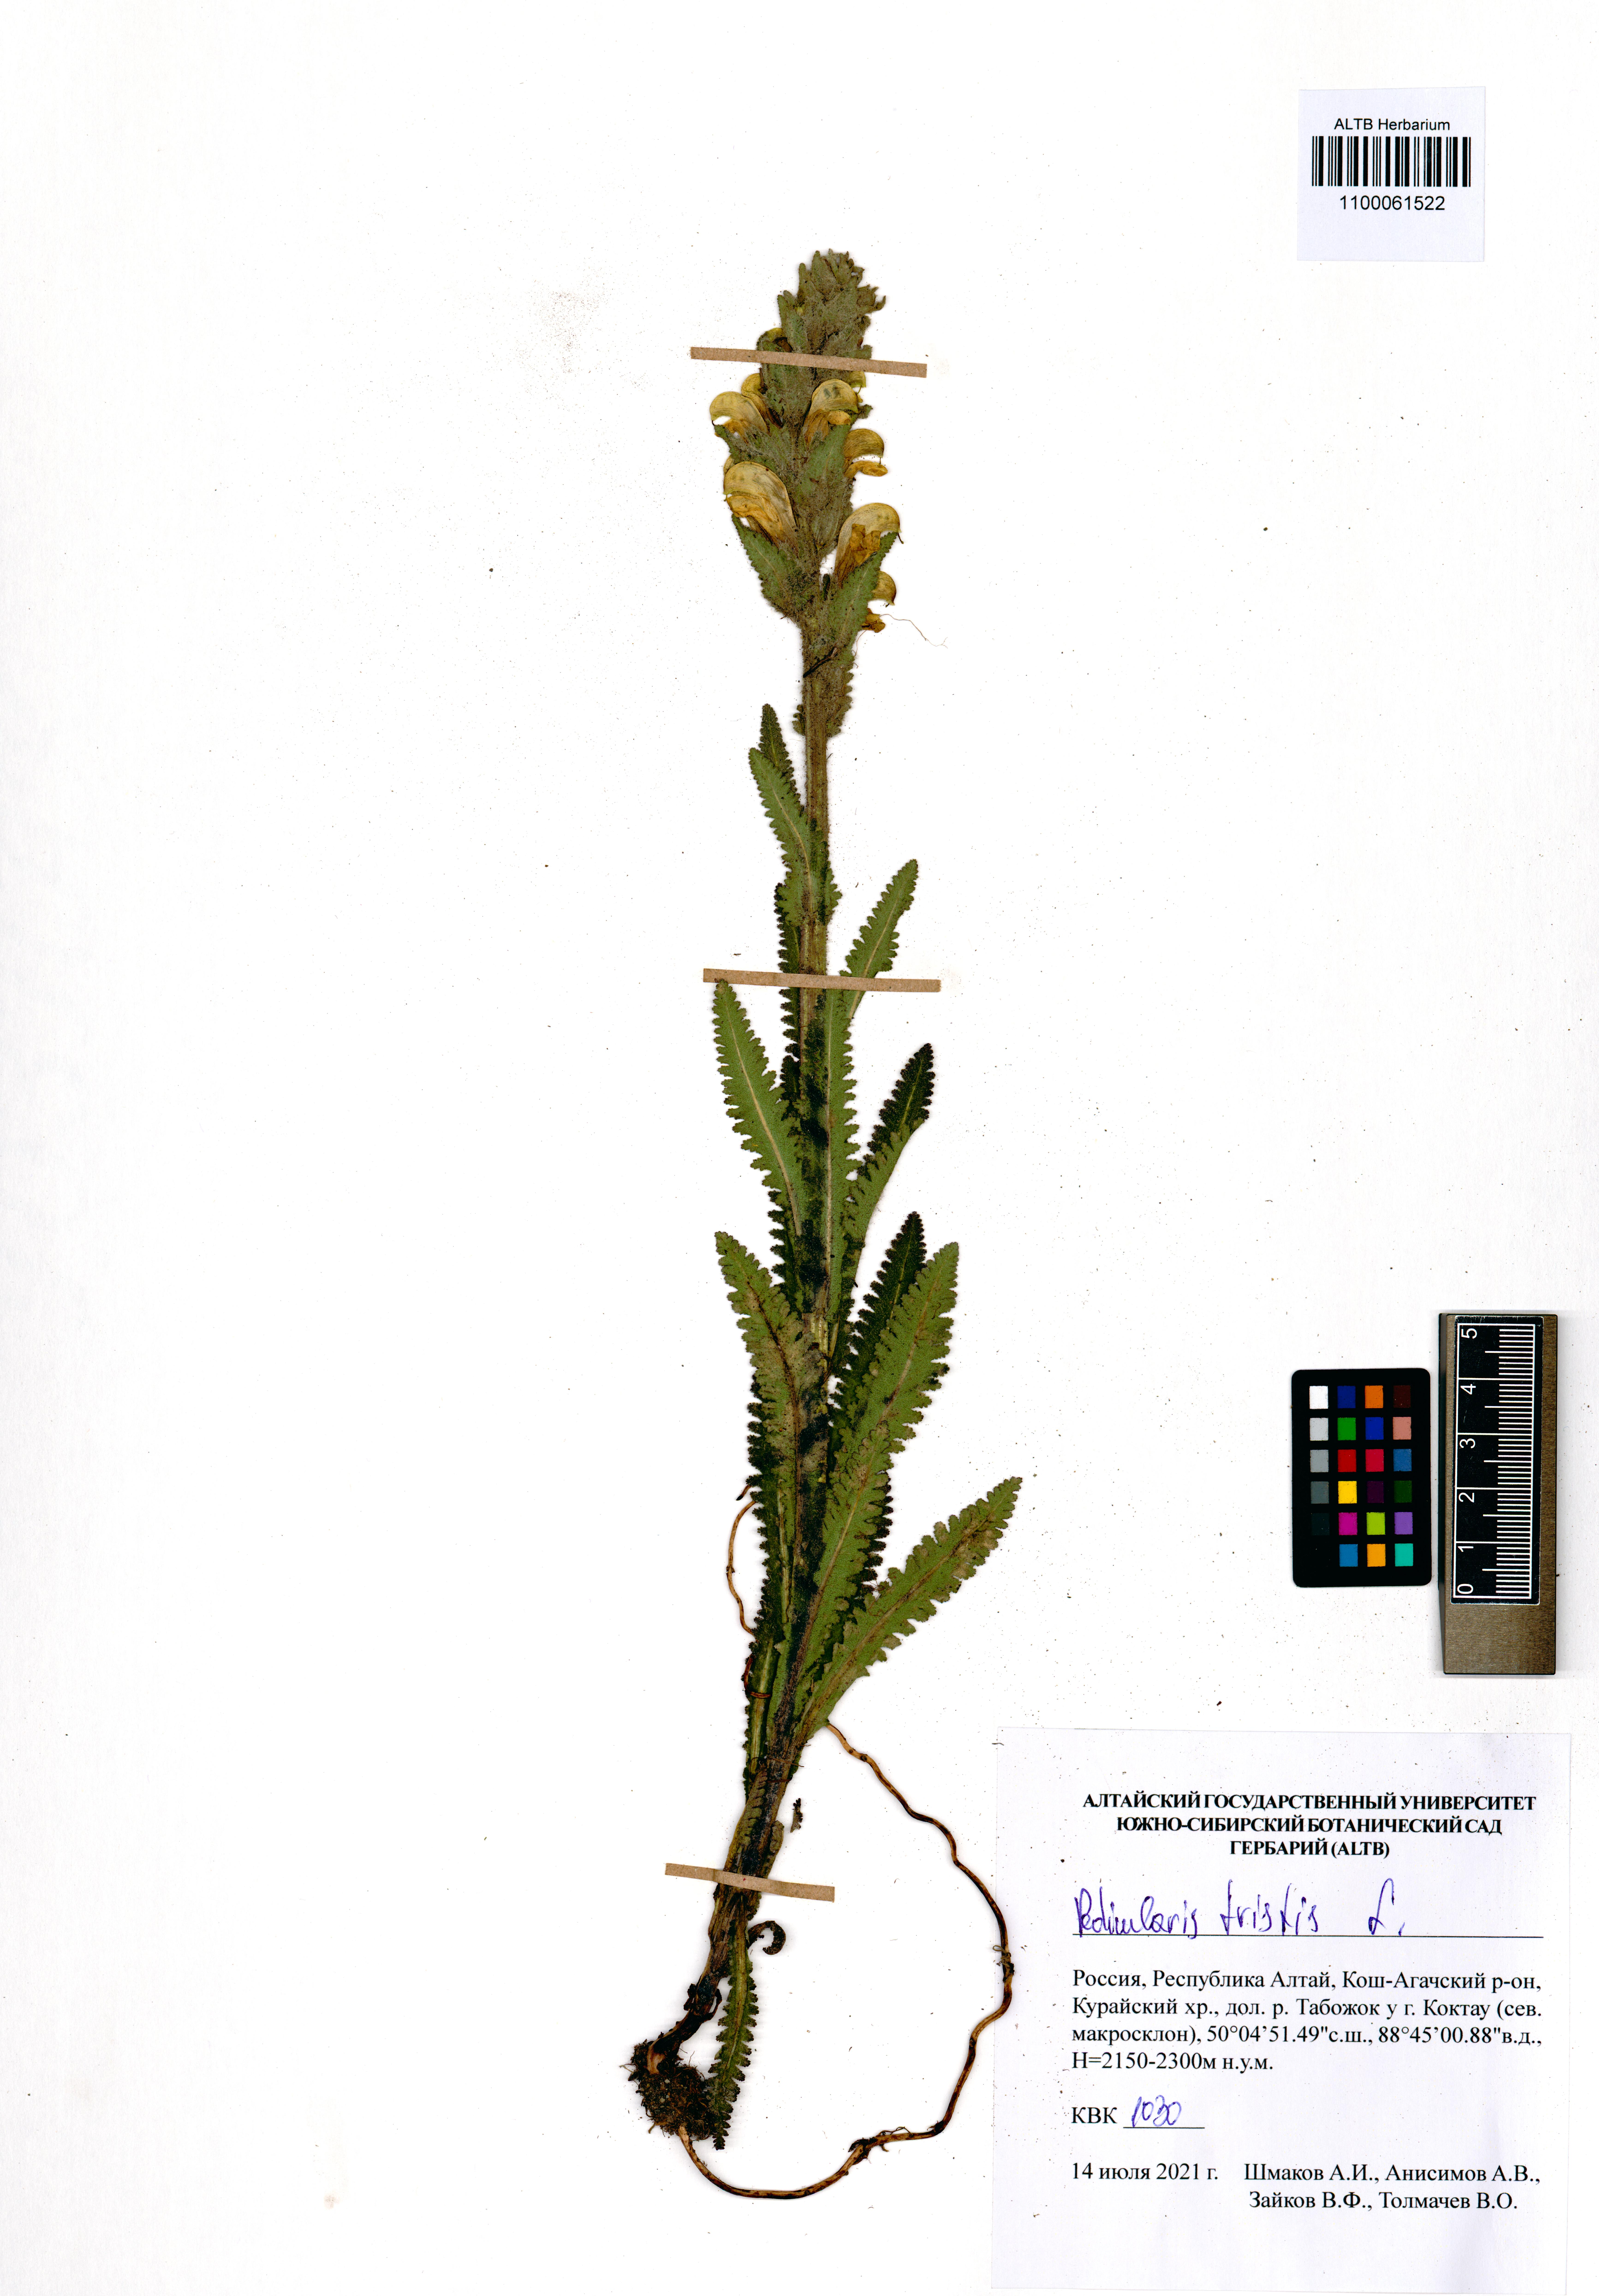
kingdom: Plantae
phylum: Tracheophyta
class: Magnoliopsida
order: Lamiales
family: Orobanchaceae
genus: Pedicularis
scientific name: Pedicularis tristis
